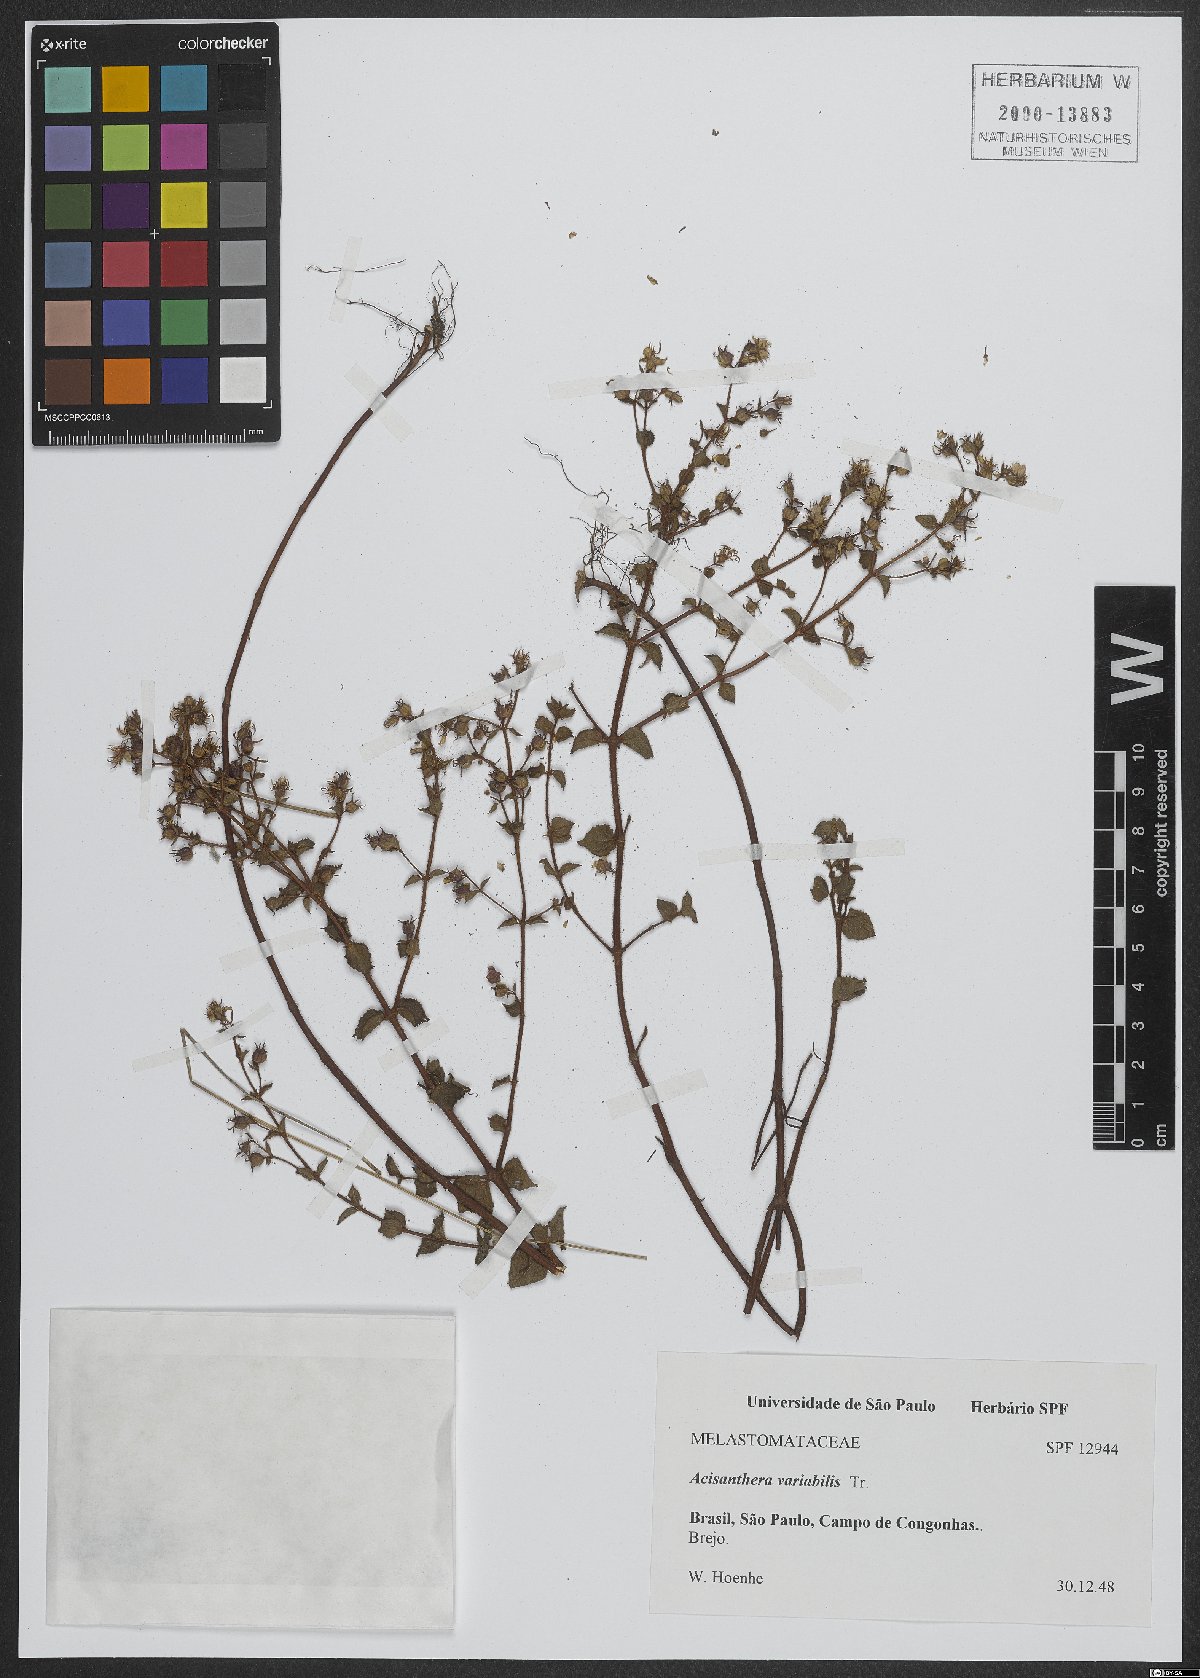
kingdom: Plantae
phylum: Tracheophyta
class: Magnoliopsida
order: Myrtales
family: Melastomataceae
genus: Acisanthera
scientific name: Acisanthera variabilis
